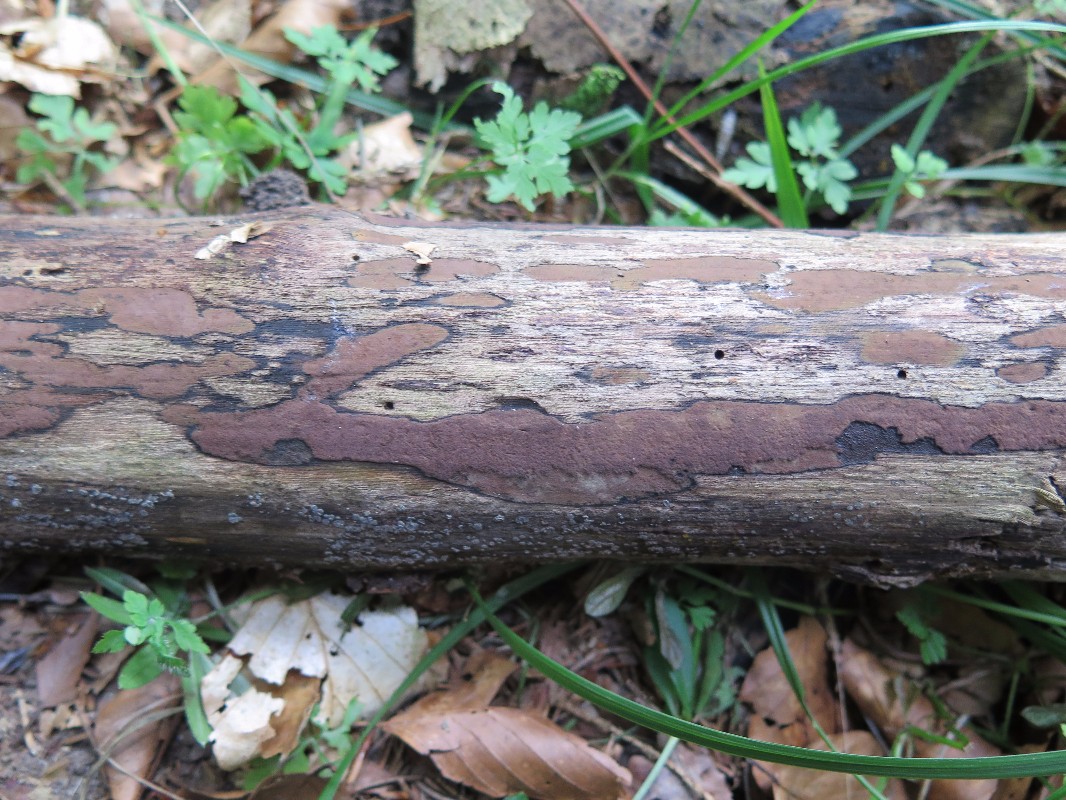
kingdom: Fungi
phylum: Ascomycota
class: Sordariomycetes
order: Xylariales
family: Hypoxylaceae
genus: Hypoxylon
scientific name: Hypoxylon petriniae
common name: nedsænket kulbær
